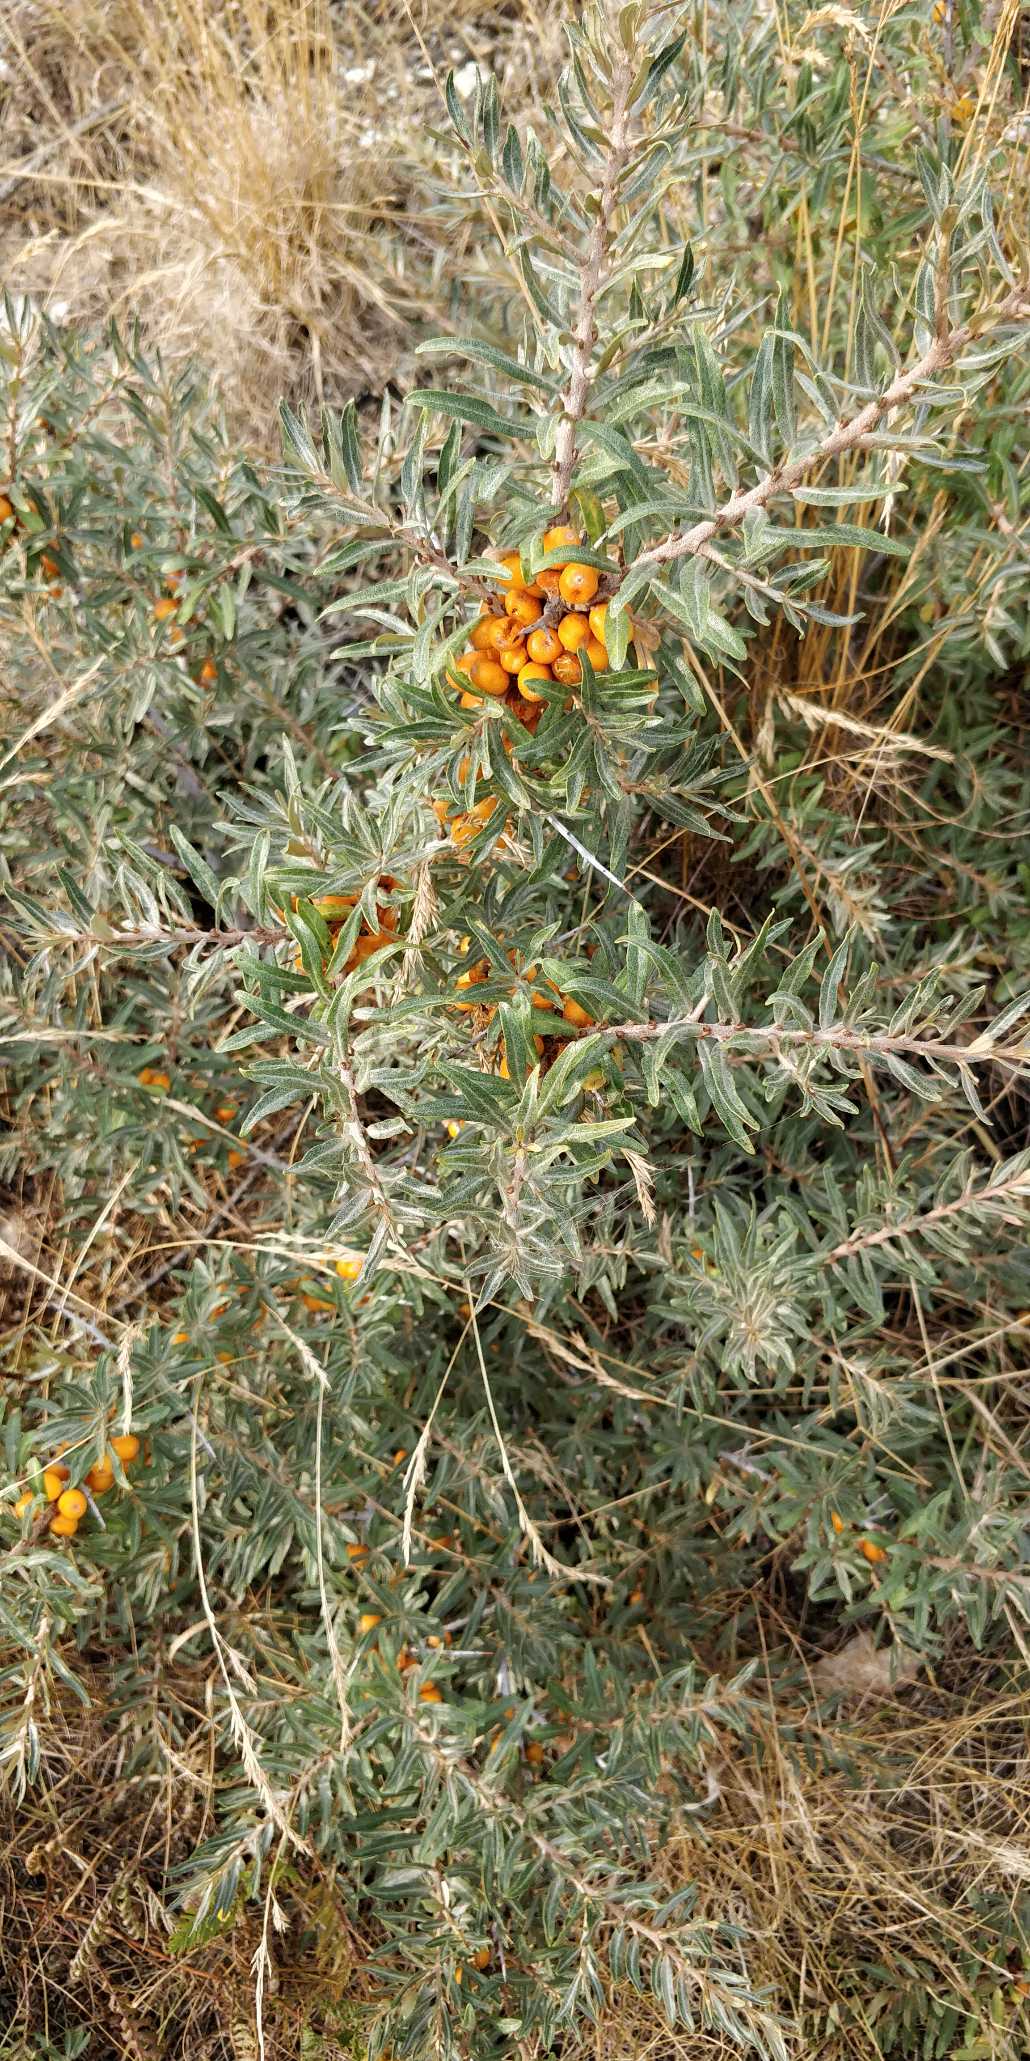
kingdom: Plantae
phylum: Tracheophyta
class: Magnoliopsida
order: Rosales
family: Elaeagnaceae
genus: Hippophae
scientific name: Hippophae rhamnoides
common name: Havtorn
